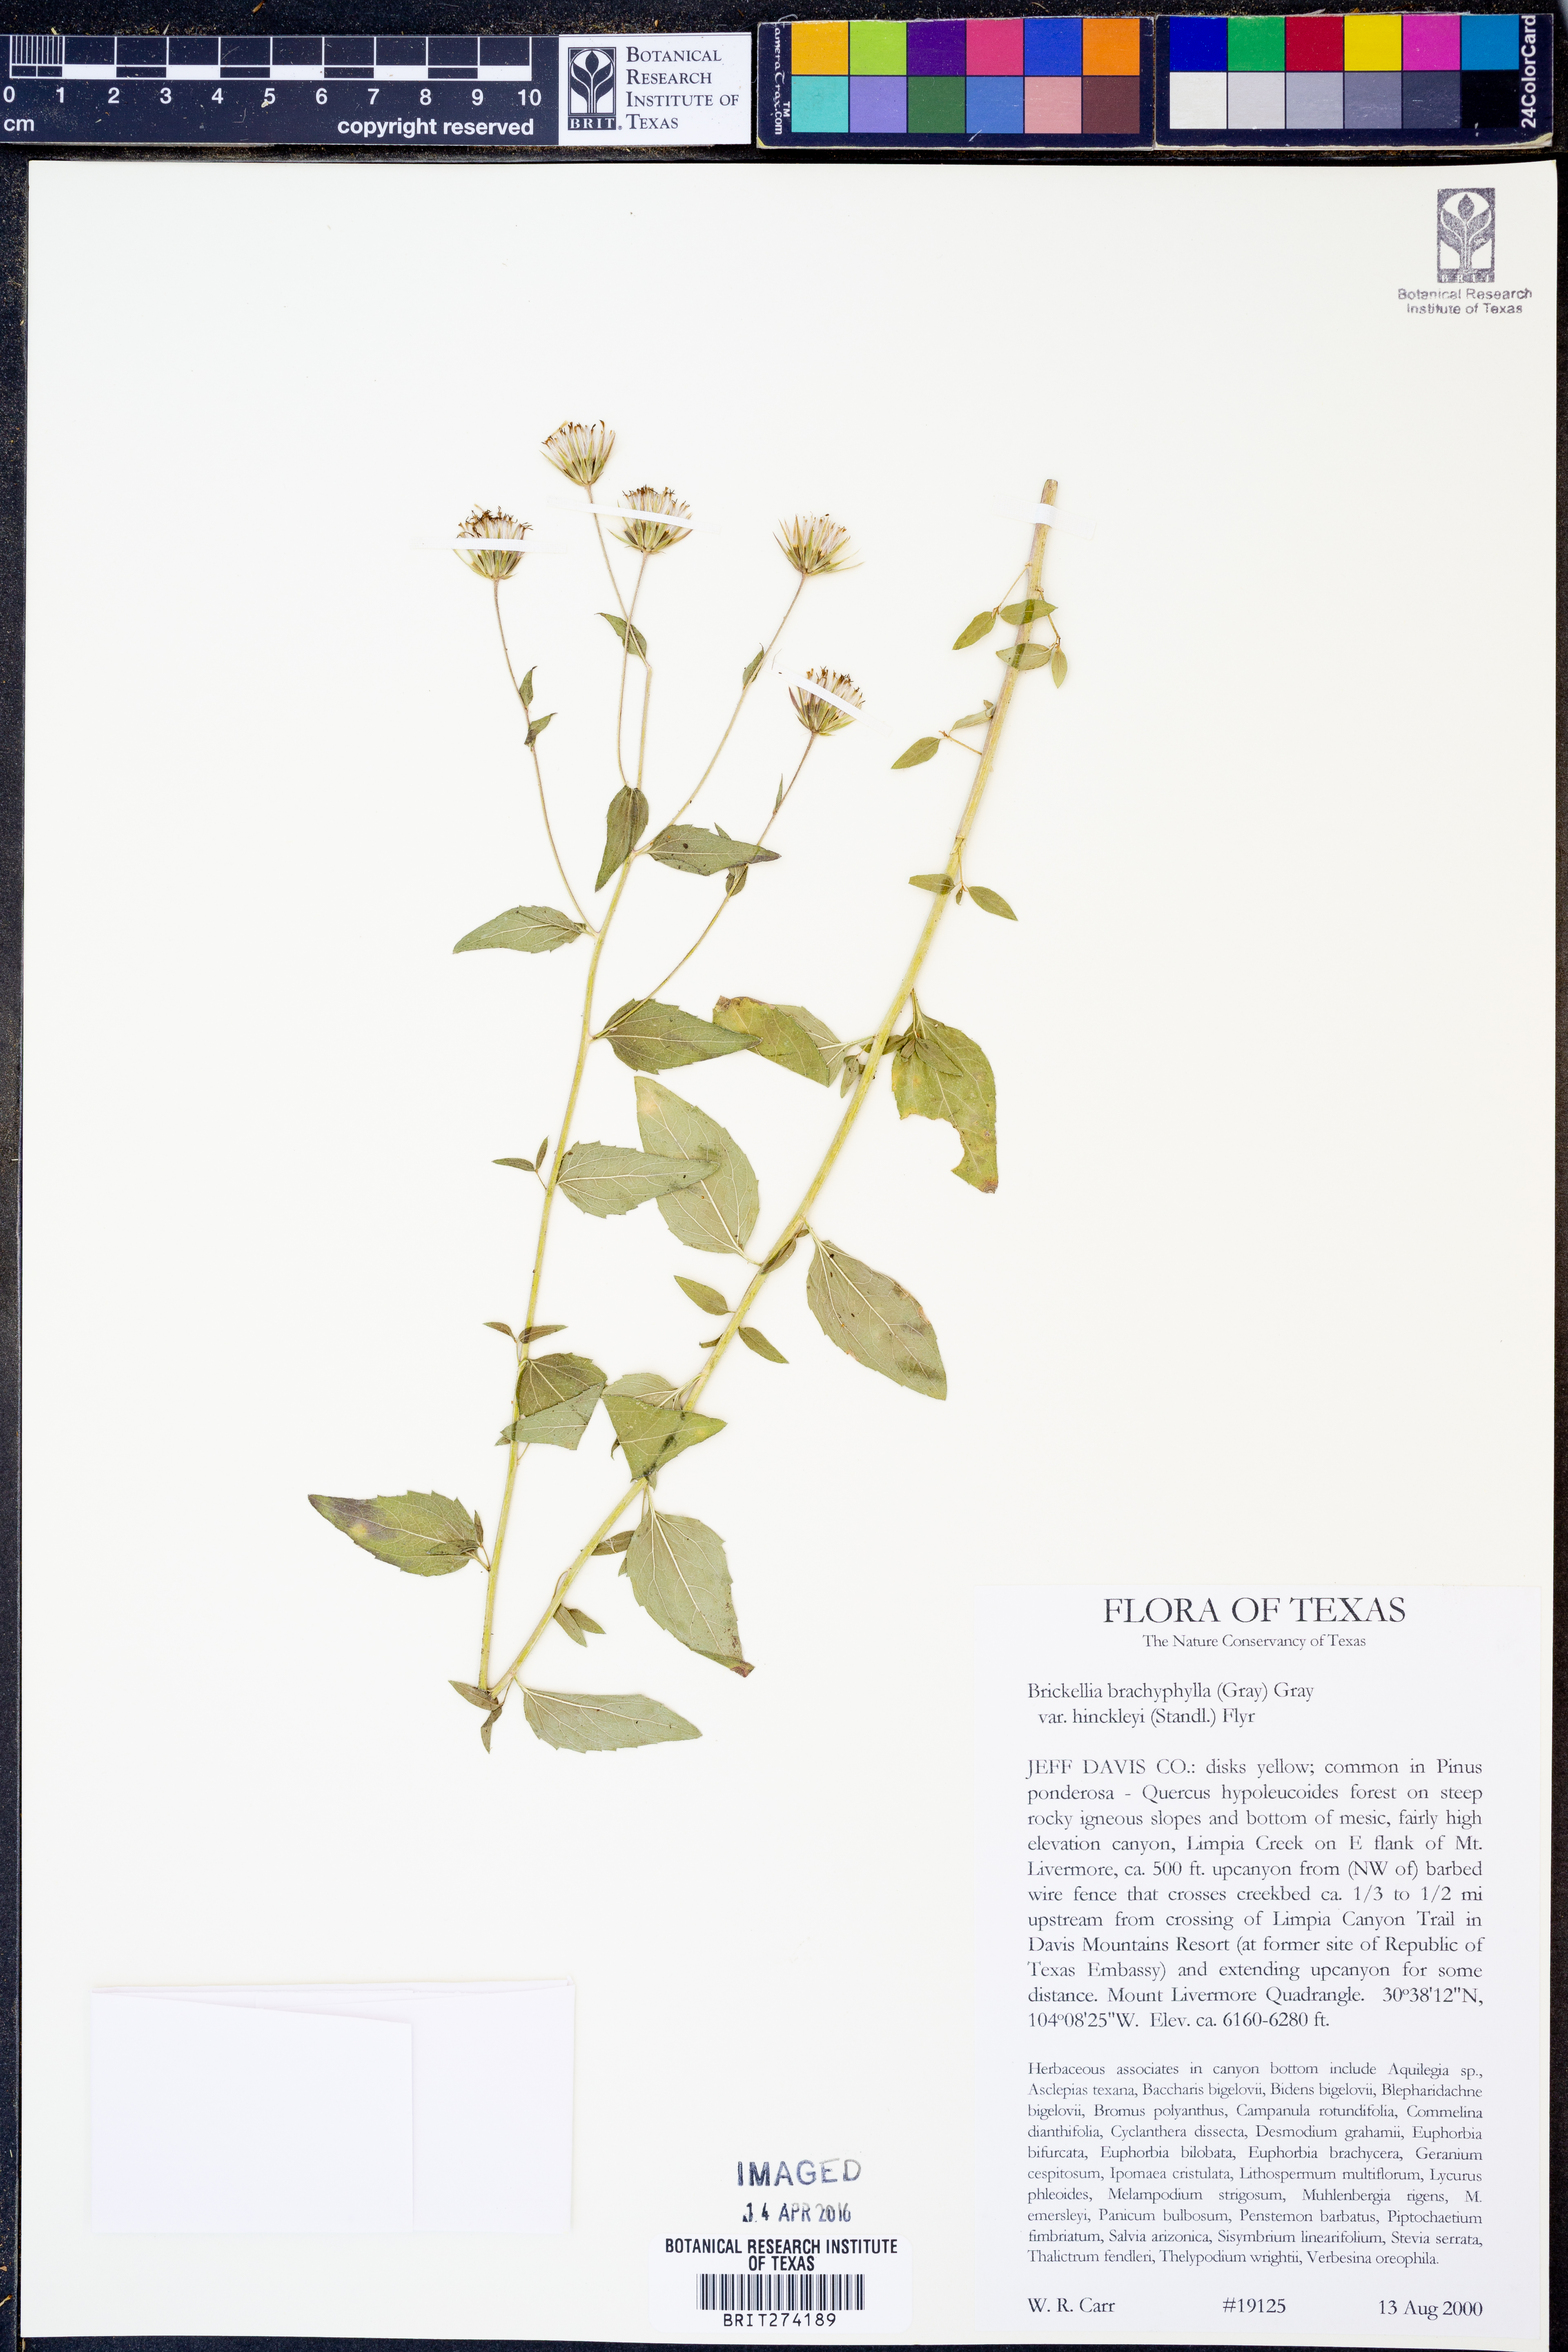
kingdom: Plantae
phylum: Tracheophyta
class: Magnoliopsida
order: Asterales
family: Asteraceae
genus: Brickellia
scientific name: Brickellia hinckleyi
